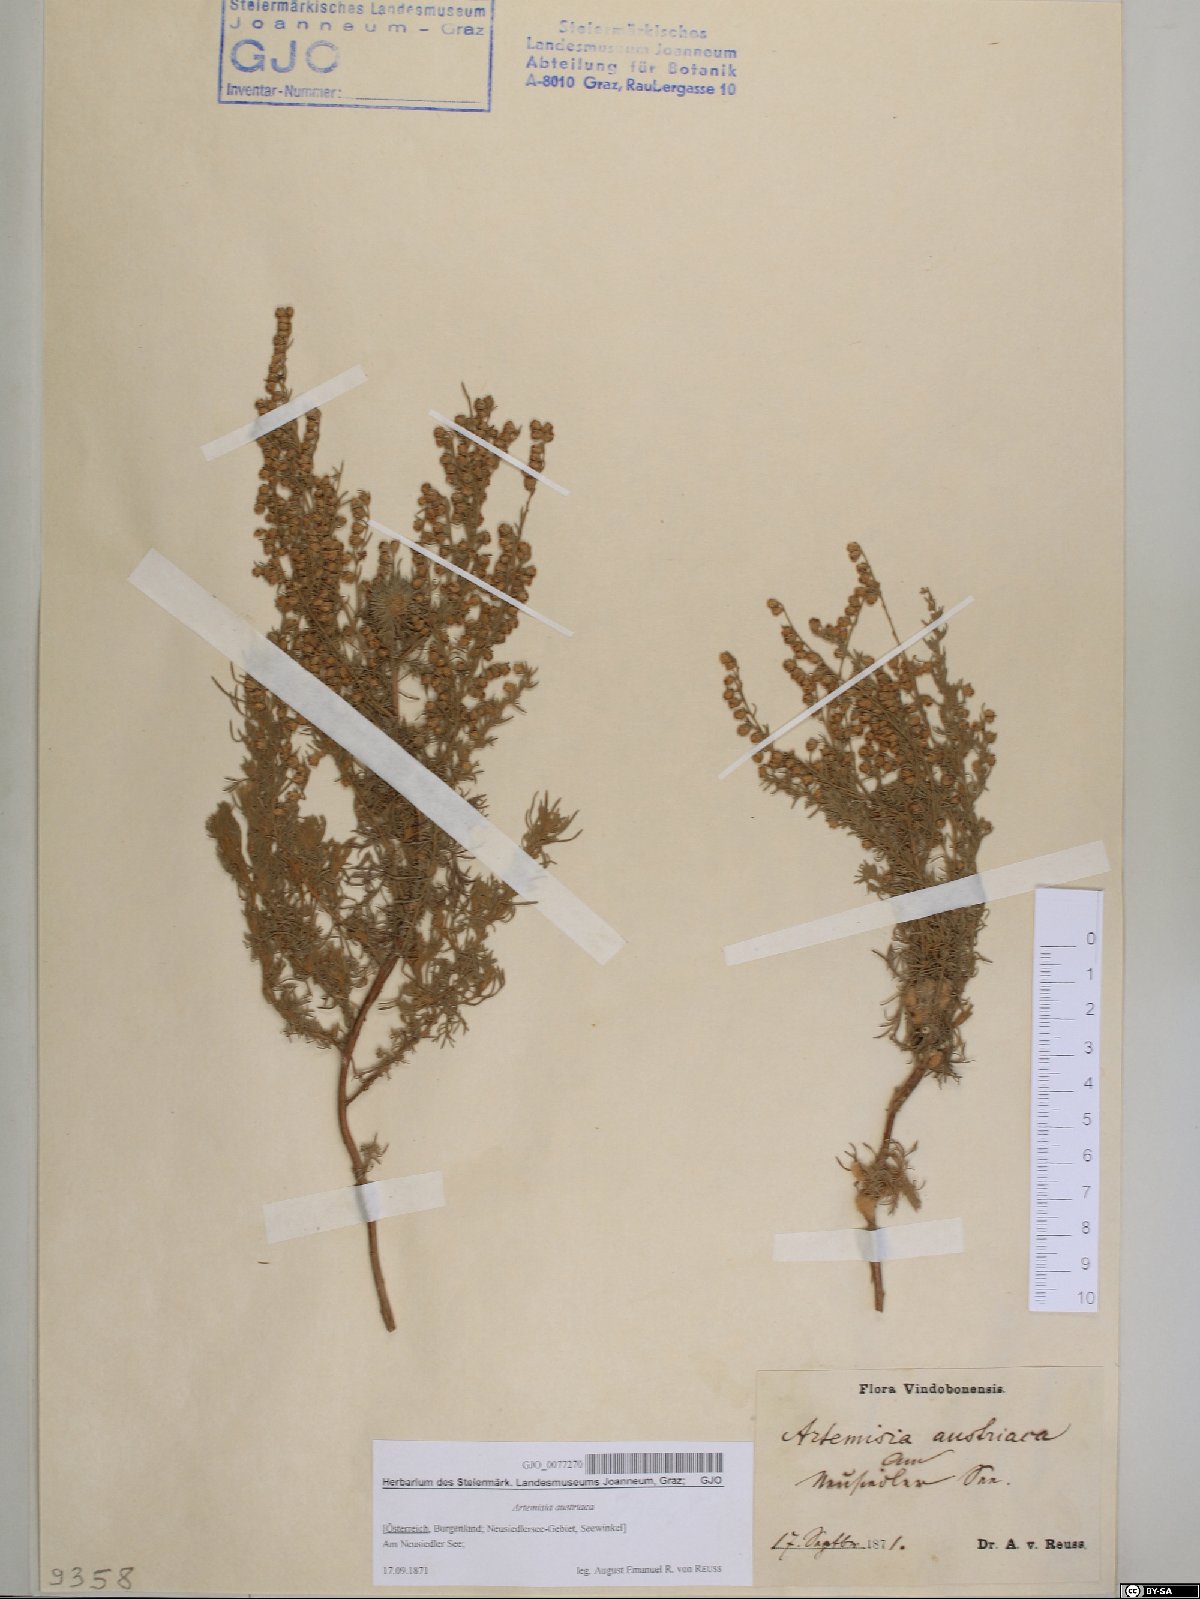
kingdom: Plantae
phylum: Tracheophyta
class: Magnoliopsida
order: Asterales
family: Asteraceae
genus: Artemisia
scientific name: Artemisia austriaca
